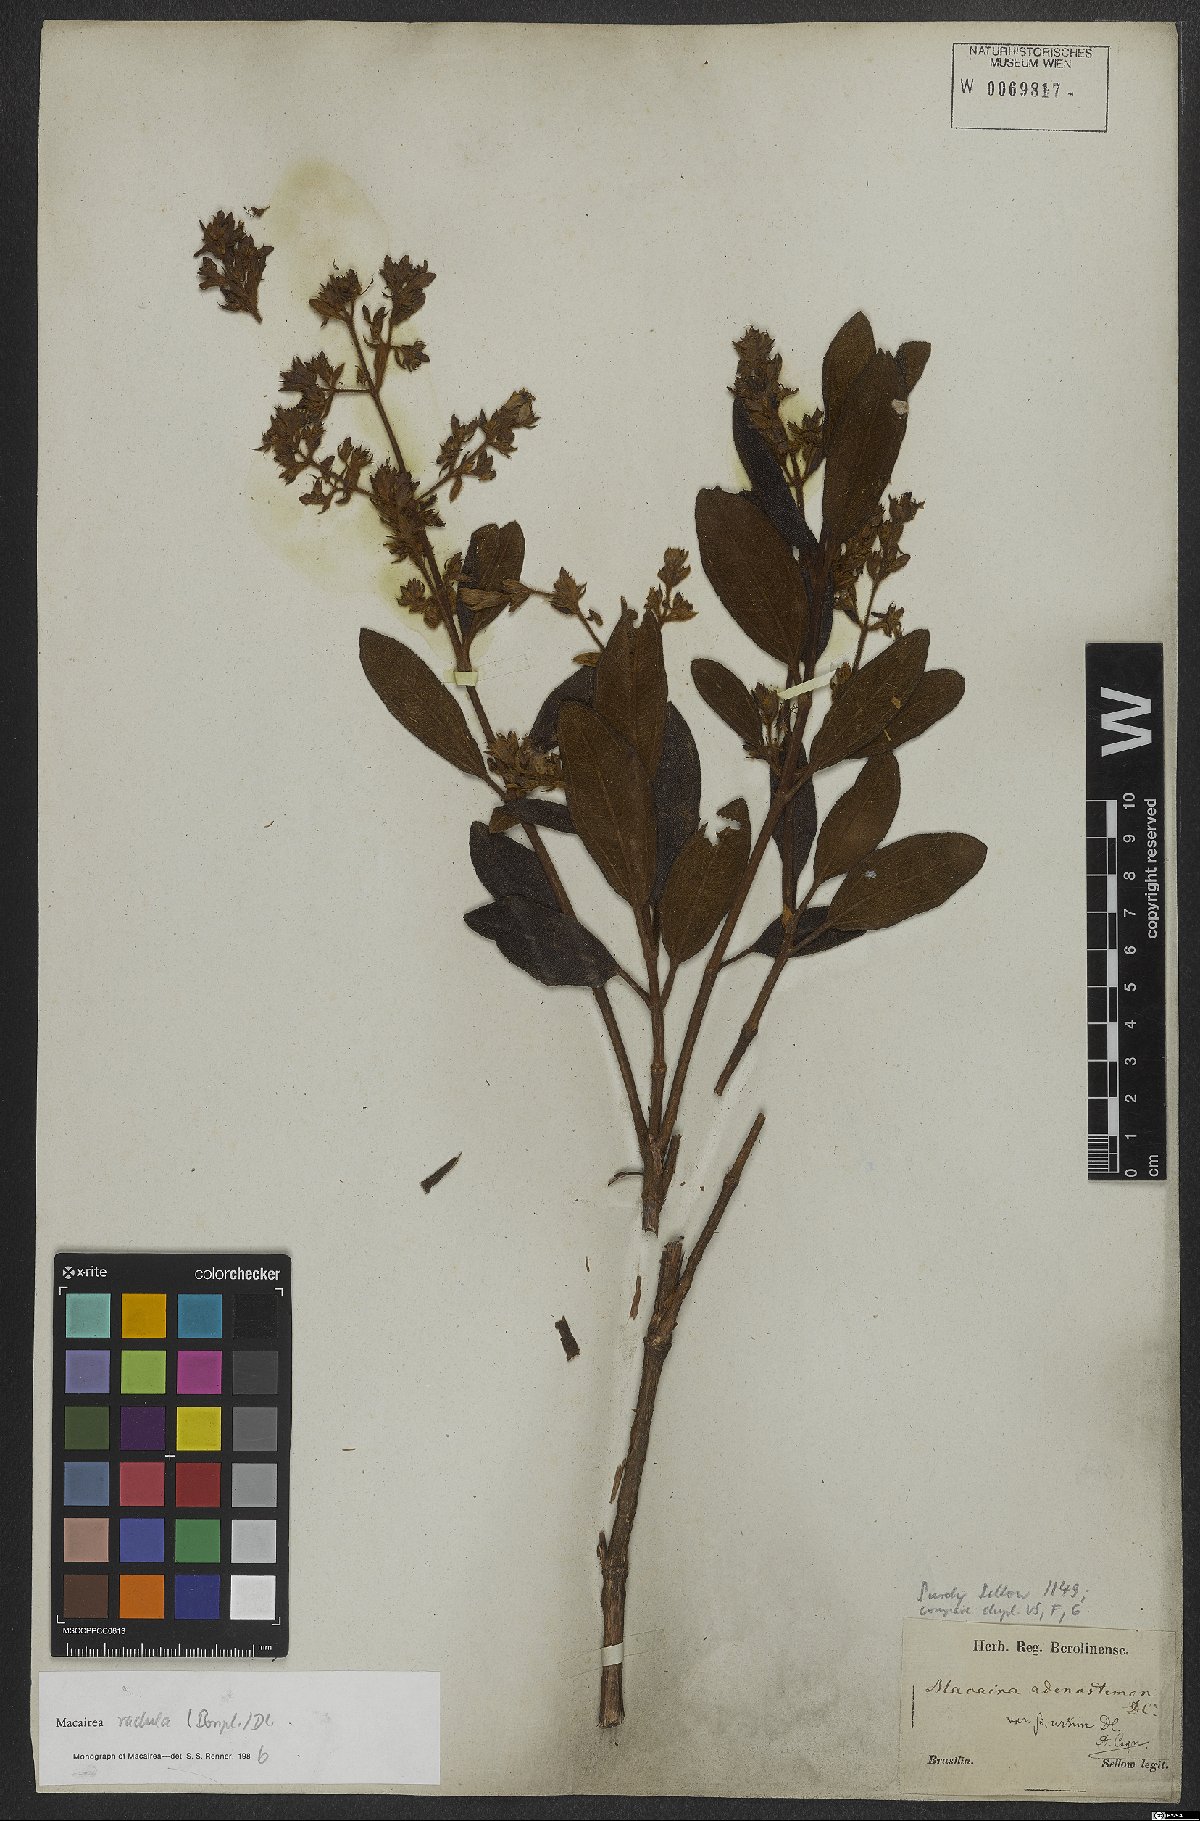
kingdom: Plantae
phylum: Tracheophyta
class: Magnoliopsida
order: Myrtales
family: Melastomataceae
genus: Macairea
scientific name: Macairea radula
